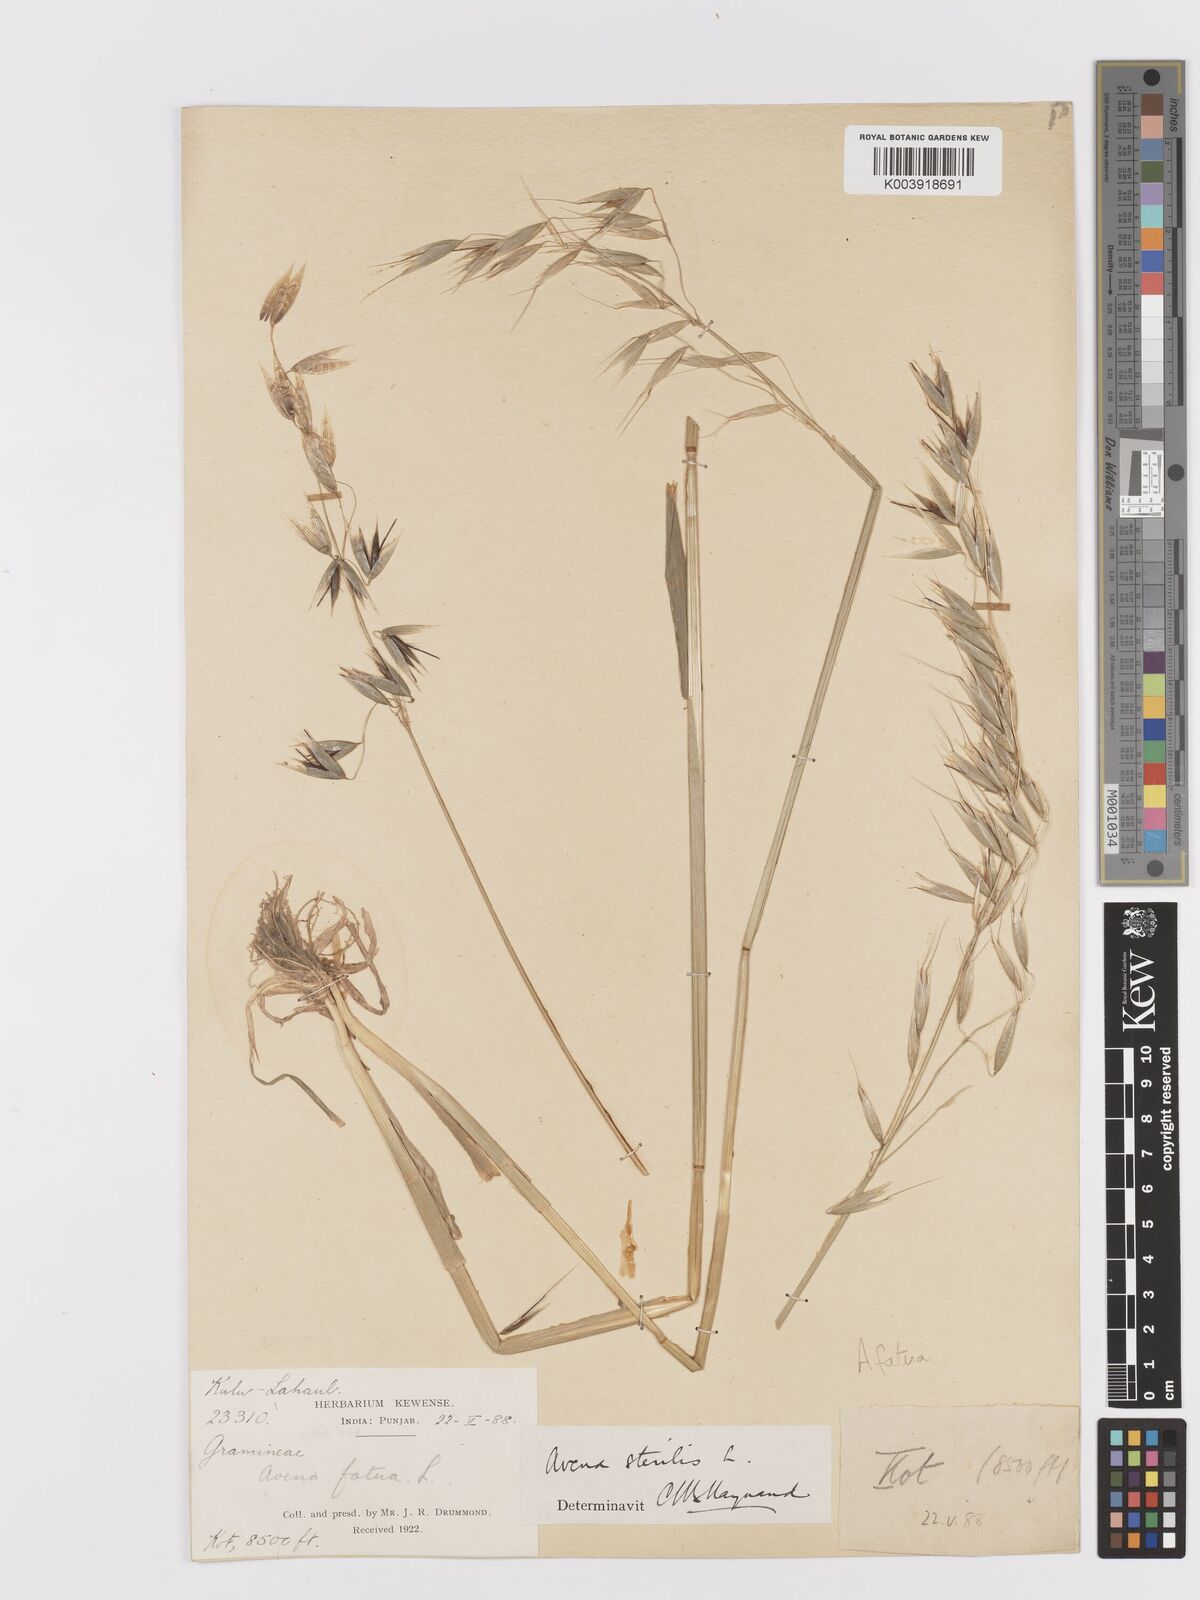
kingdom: Plantae
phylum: Tracheophyta
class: Liliopsida
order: Poales
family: Poaceae
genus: Avena
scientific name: Avena fatua
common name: Wild oat
